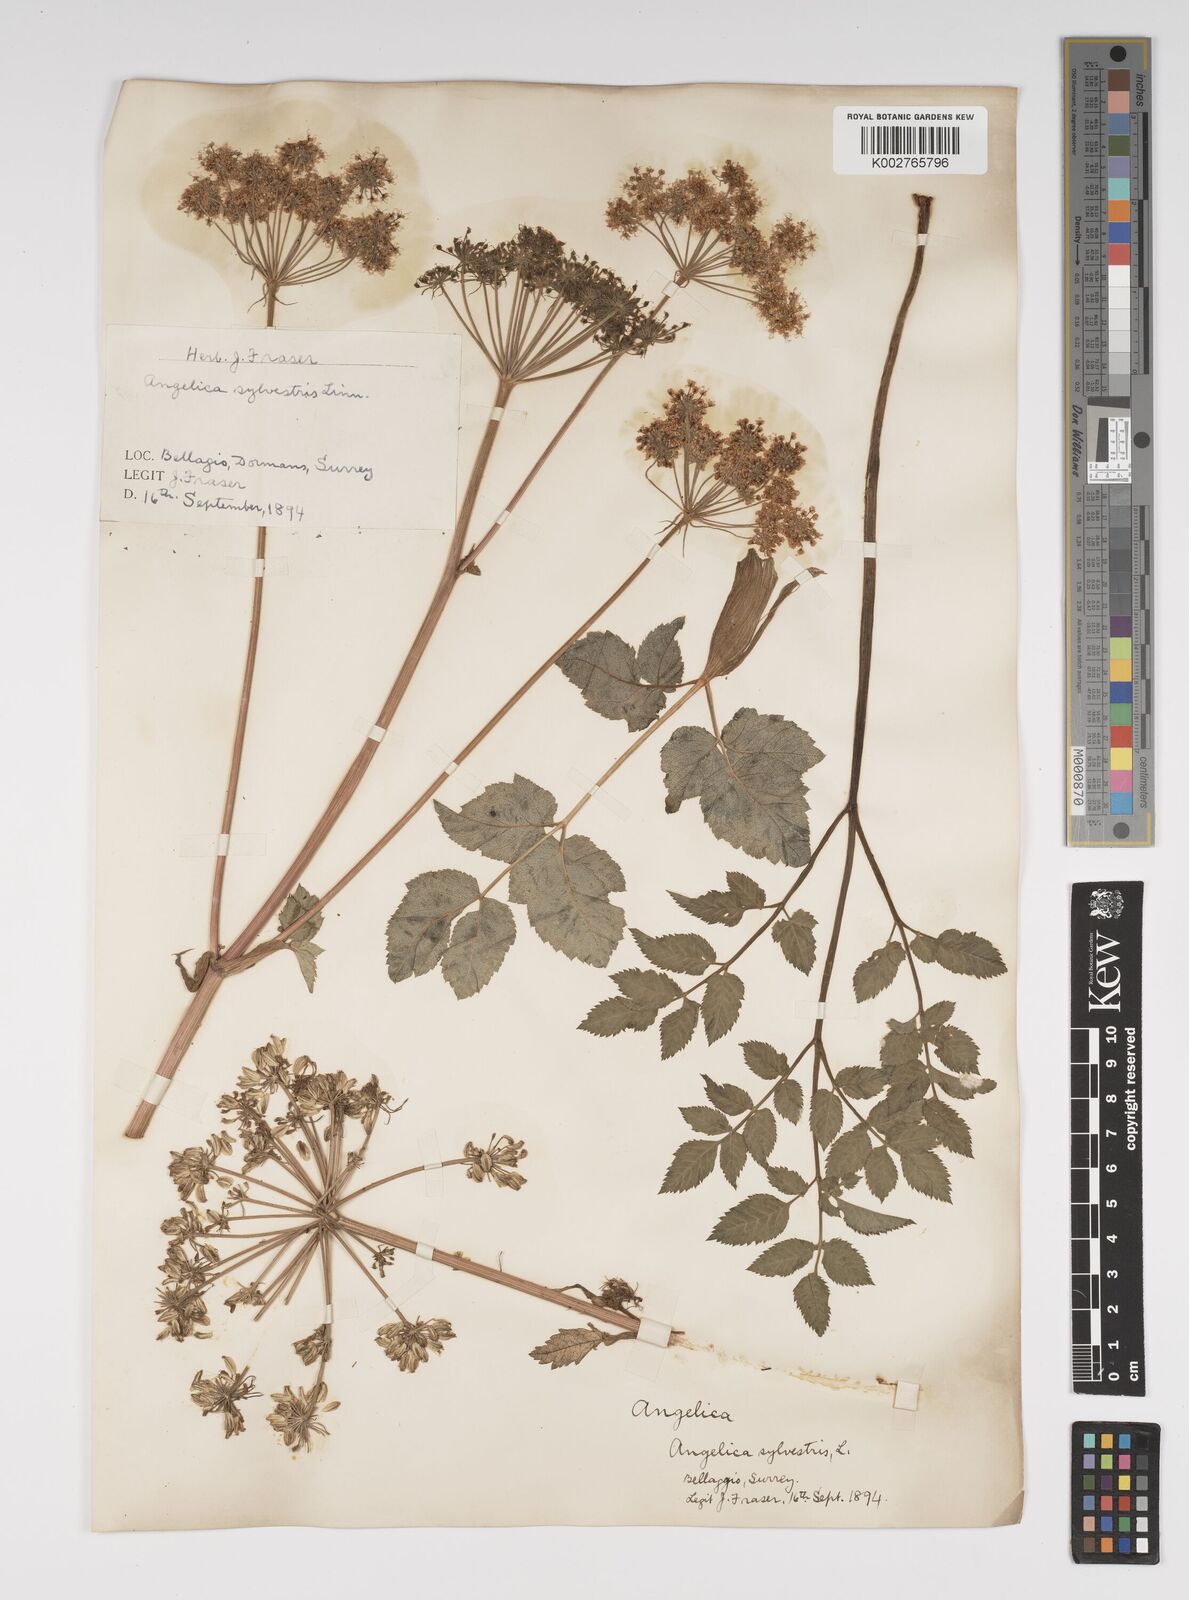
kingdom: Plantae
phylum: Tracheophyta
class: Magnoliopsida
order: Apiales
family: Apiaceae
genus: Angelica
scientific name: Angelica sylvestris
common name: Wild angelica
